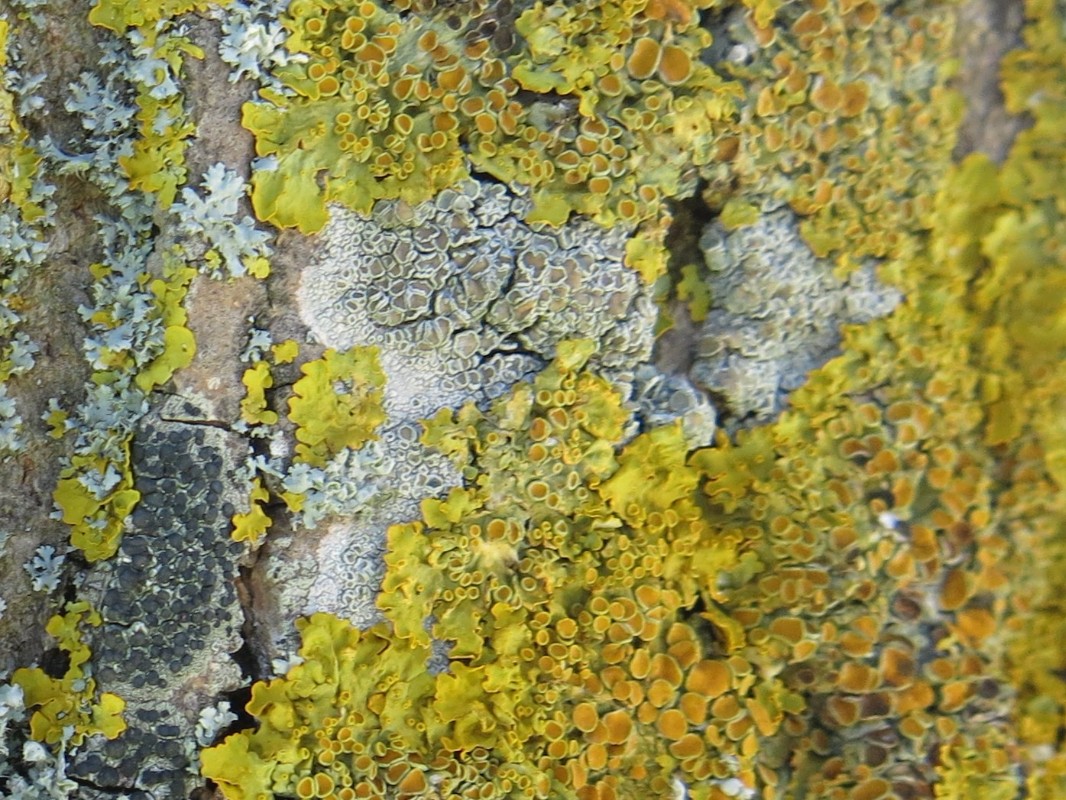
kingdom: Fungi
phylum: Ascomycota
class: Lecanoromycetes
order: Lecanorales
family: Lecanoraceae
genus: Lecanora
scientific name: Lecanora chlarotera
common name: brun kantskivelav
